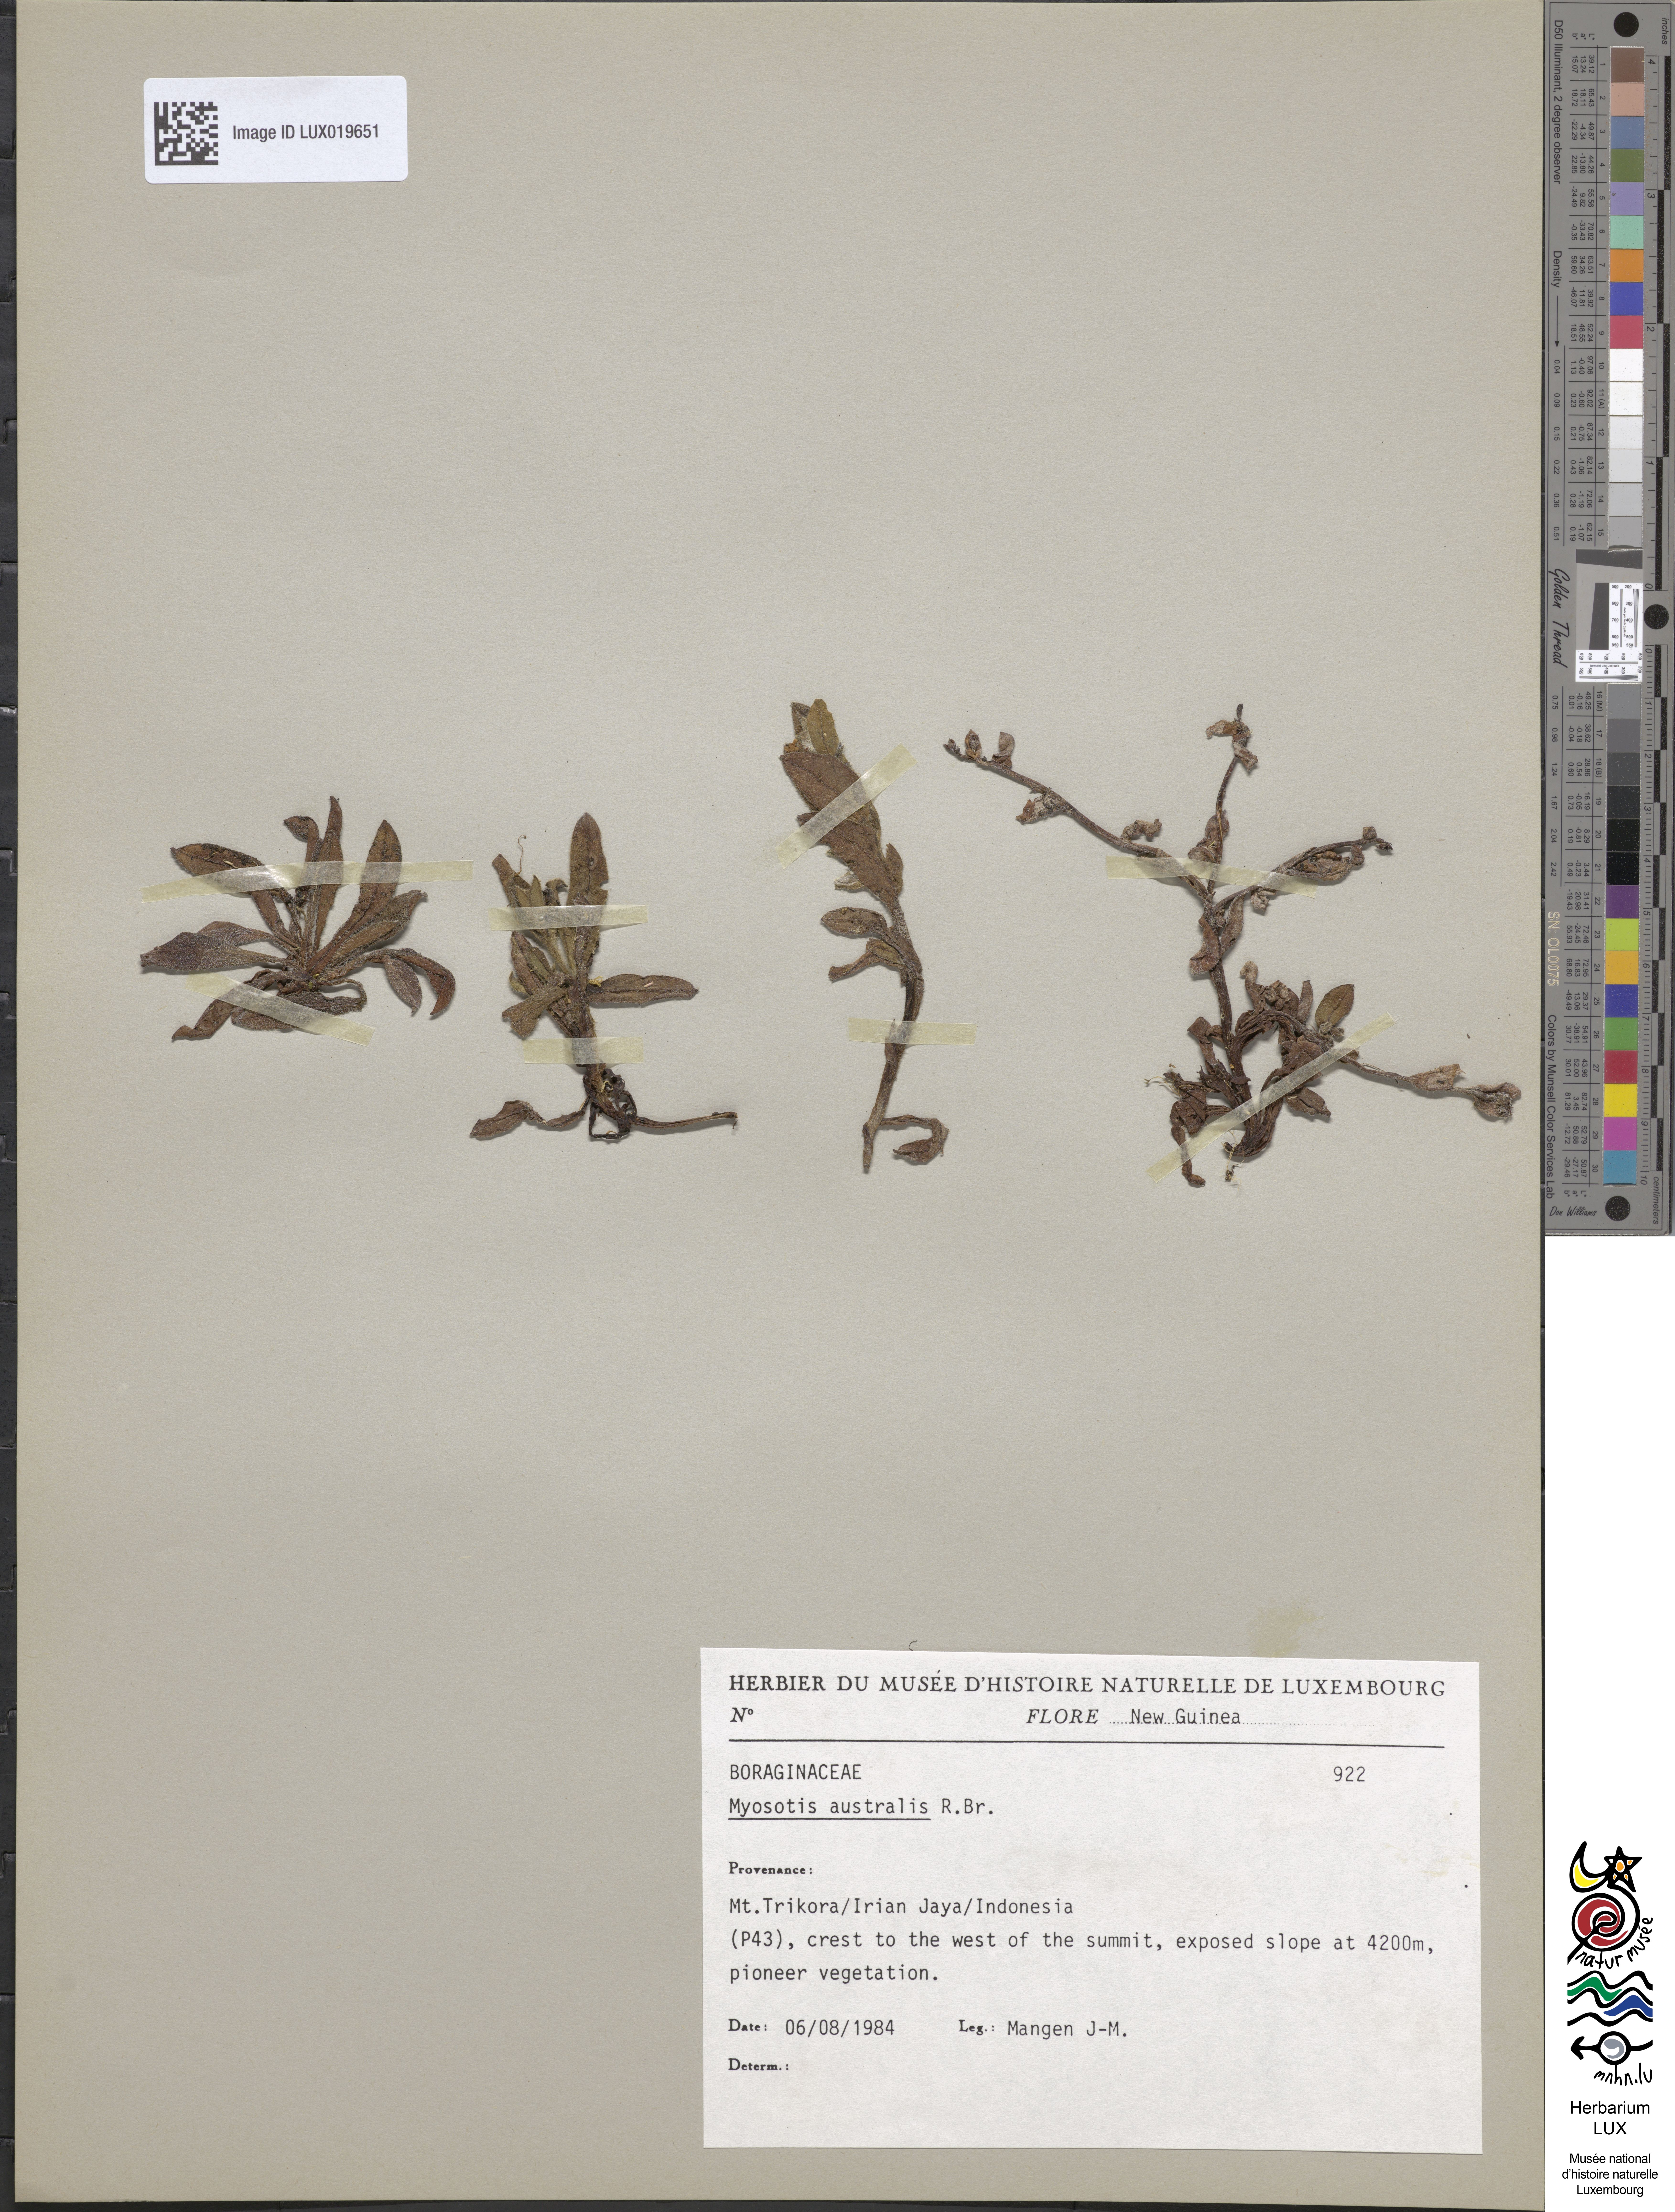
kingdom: Plantae
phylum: Tracheophyta
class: Magnoliopsida
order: Boraginales
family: Boraginaceae
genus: Myosotis
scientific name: Myosotis australis
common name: Australian forget-me-not
